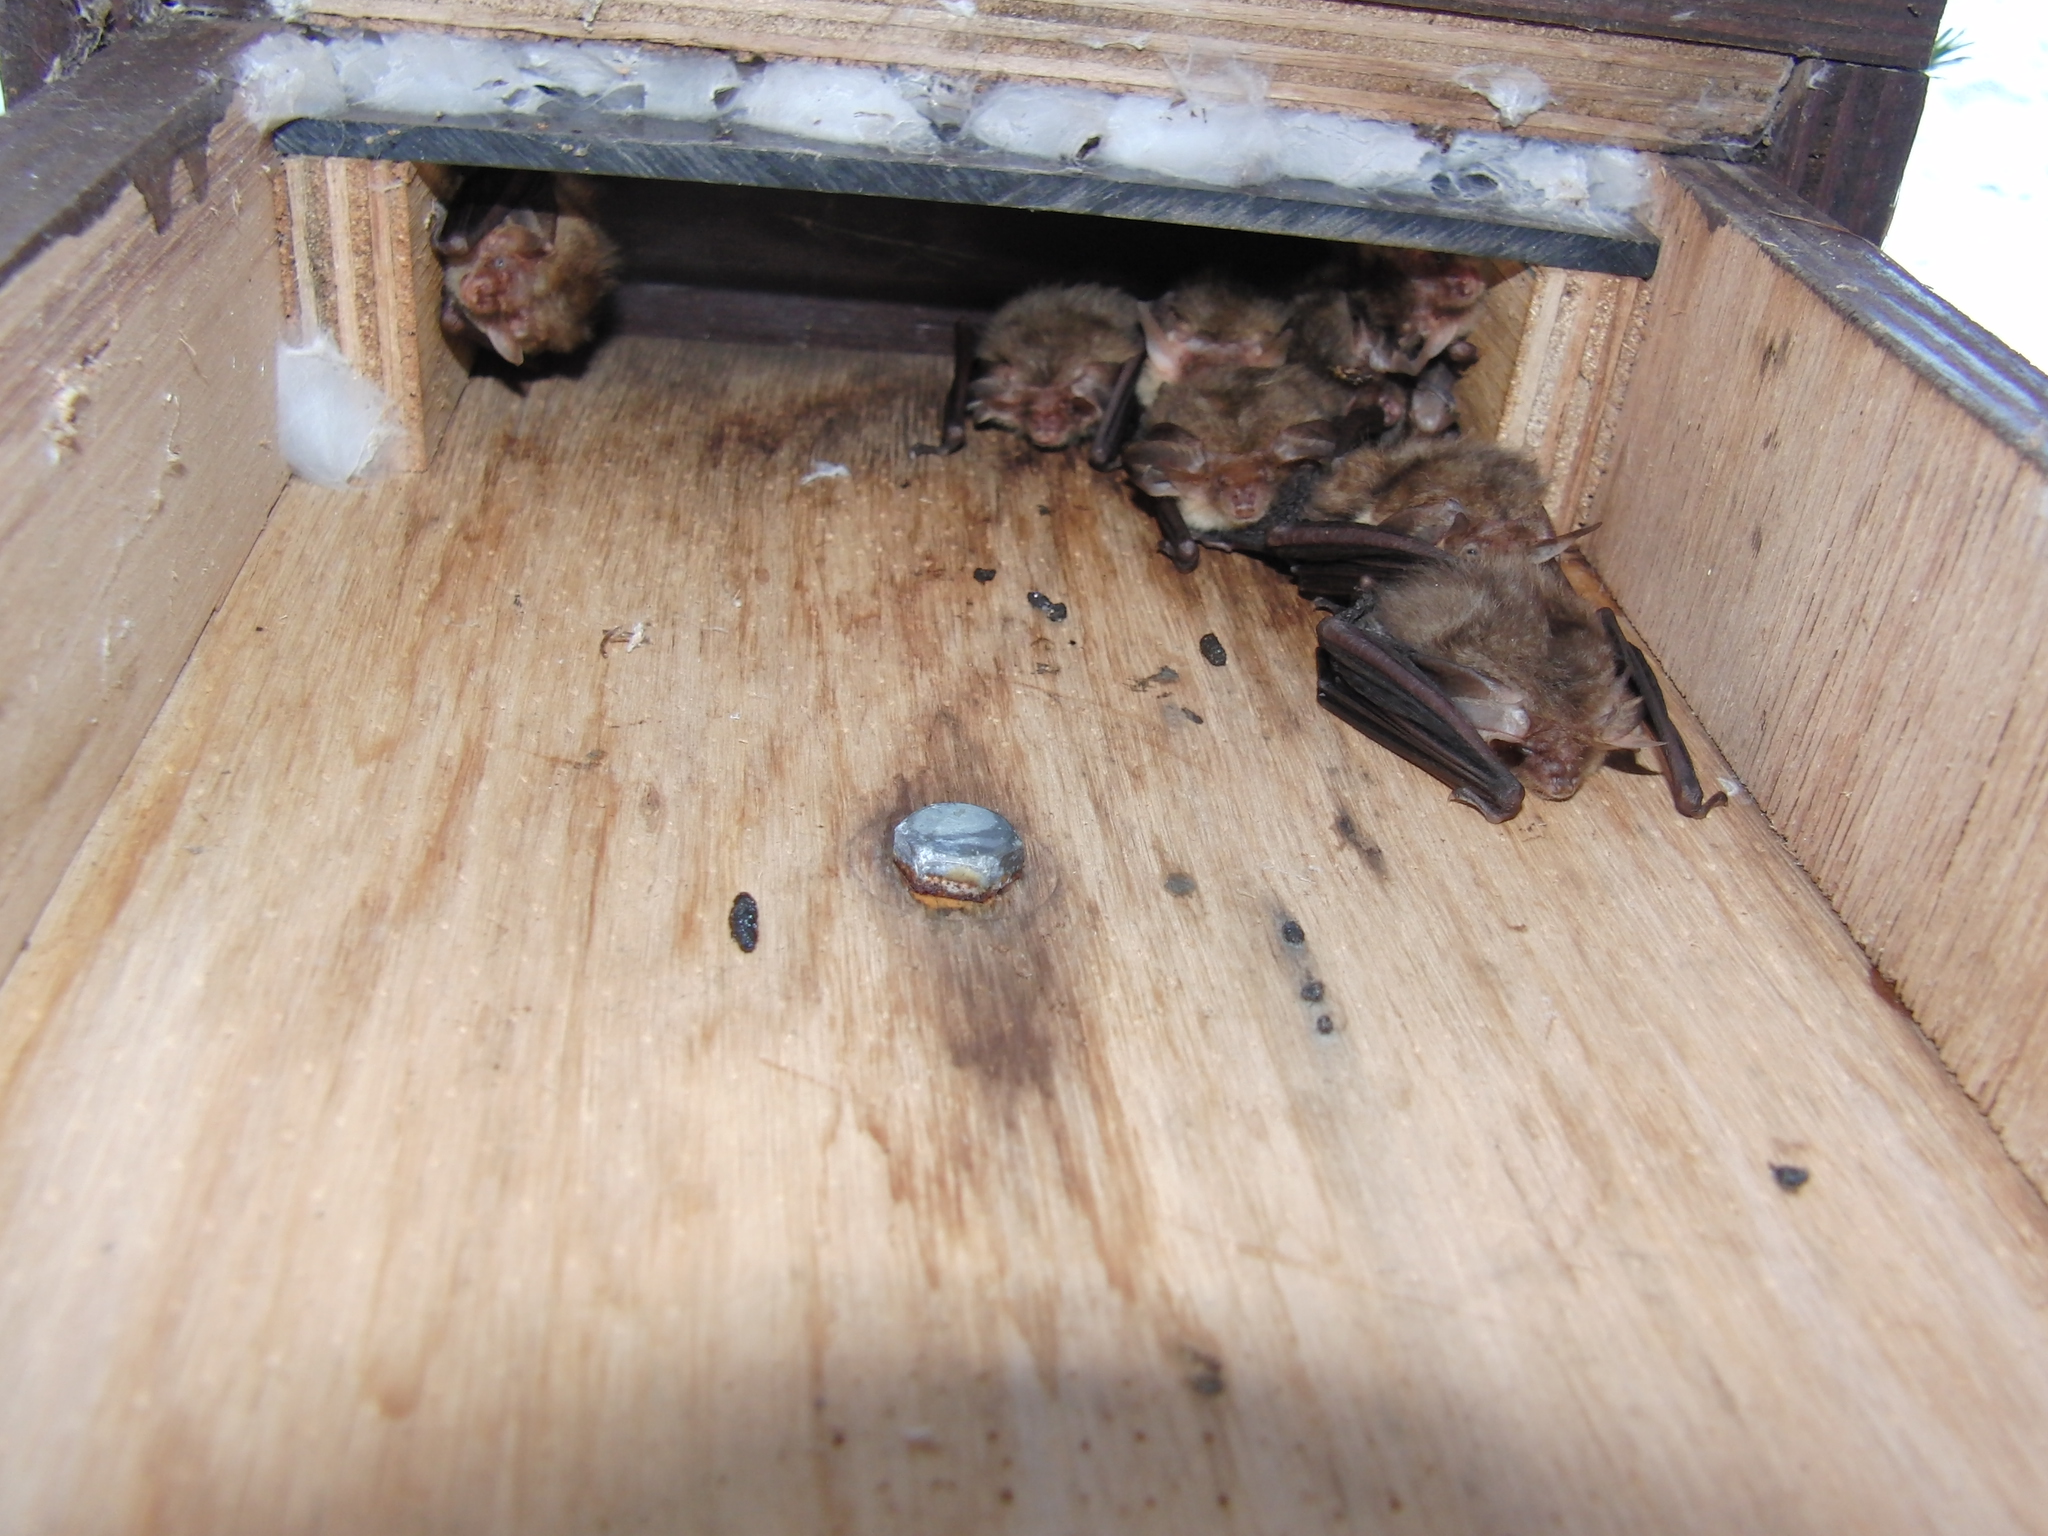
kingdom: Animalia
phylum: Chordata
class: Mammalia
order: Chiroptera
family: Vespertilionidae
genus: Plecotus
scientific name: Plecotus auritus
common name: Brown long-eared bat
